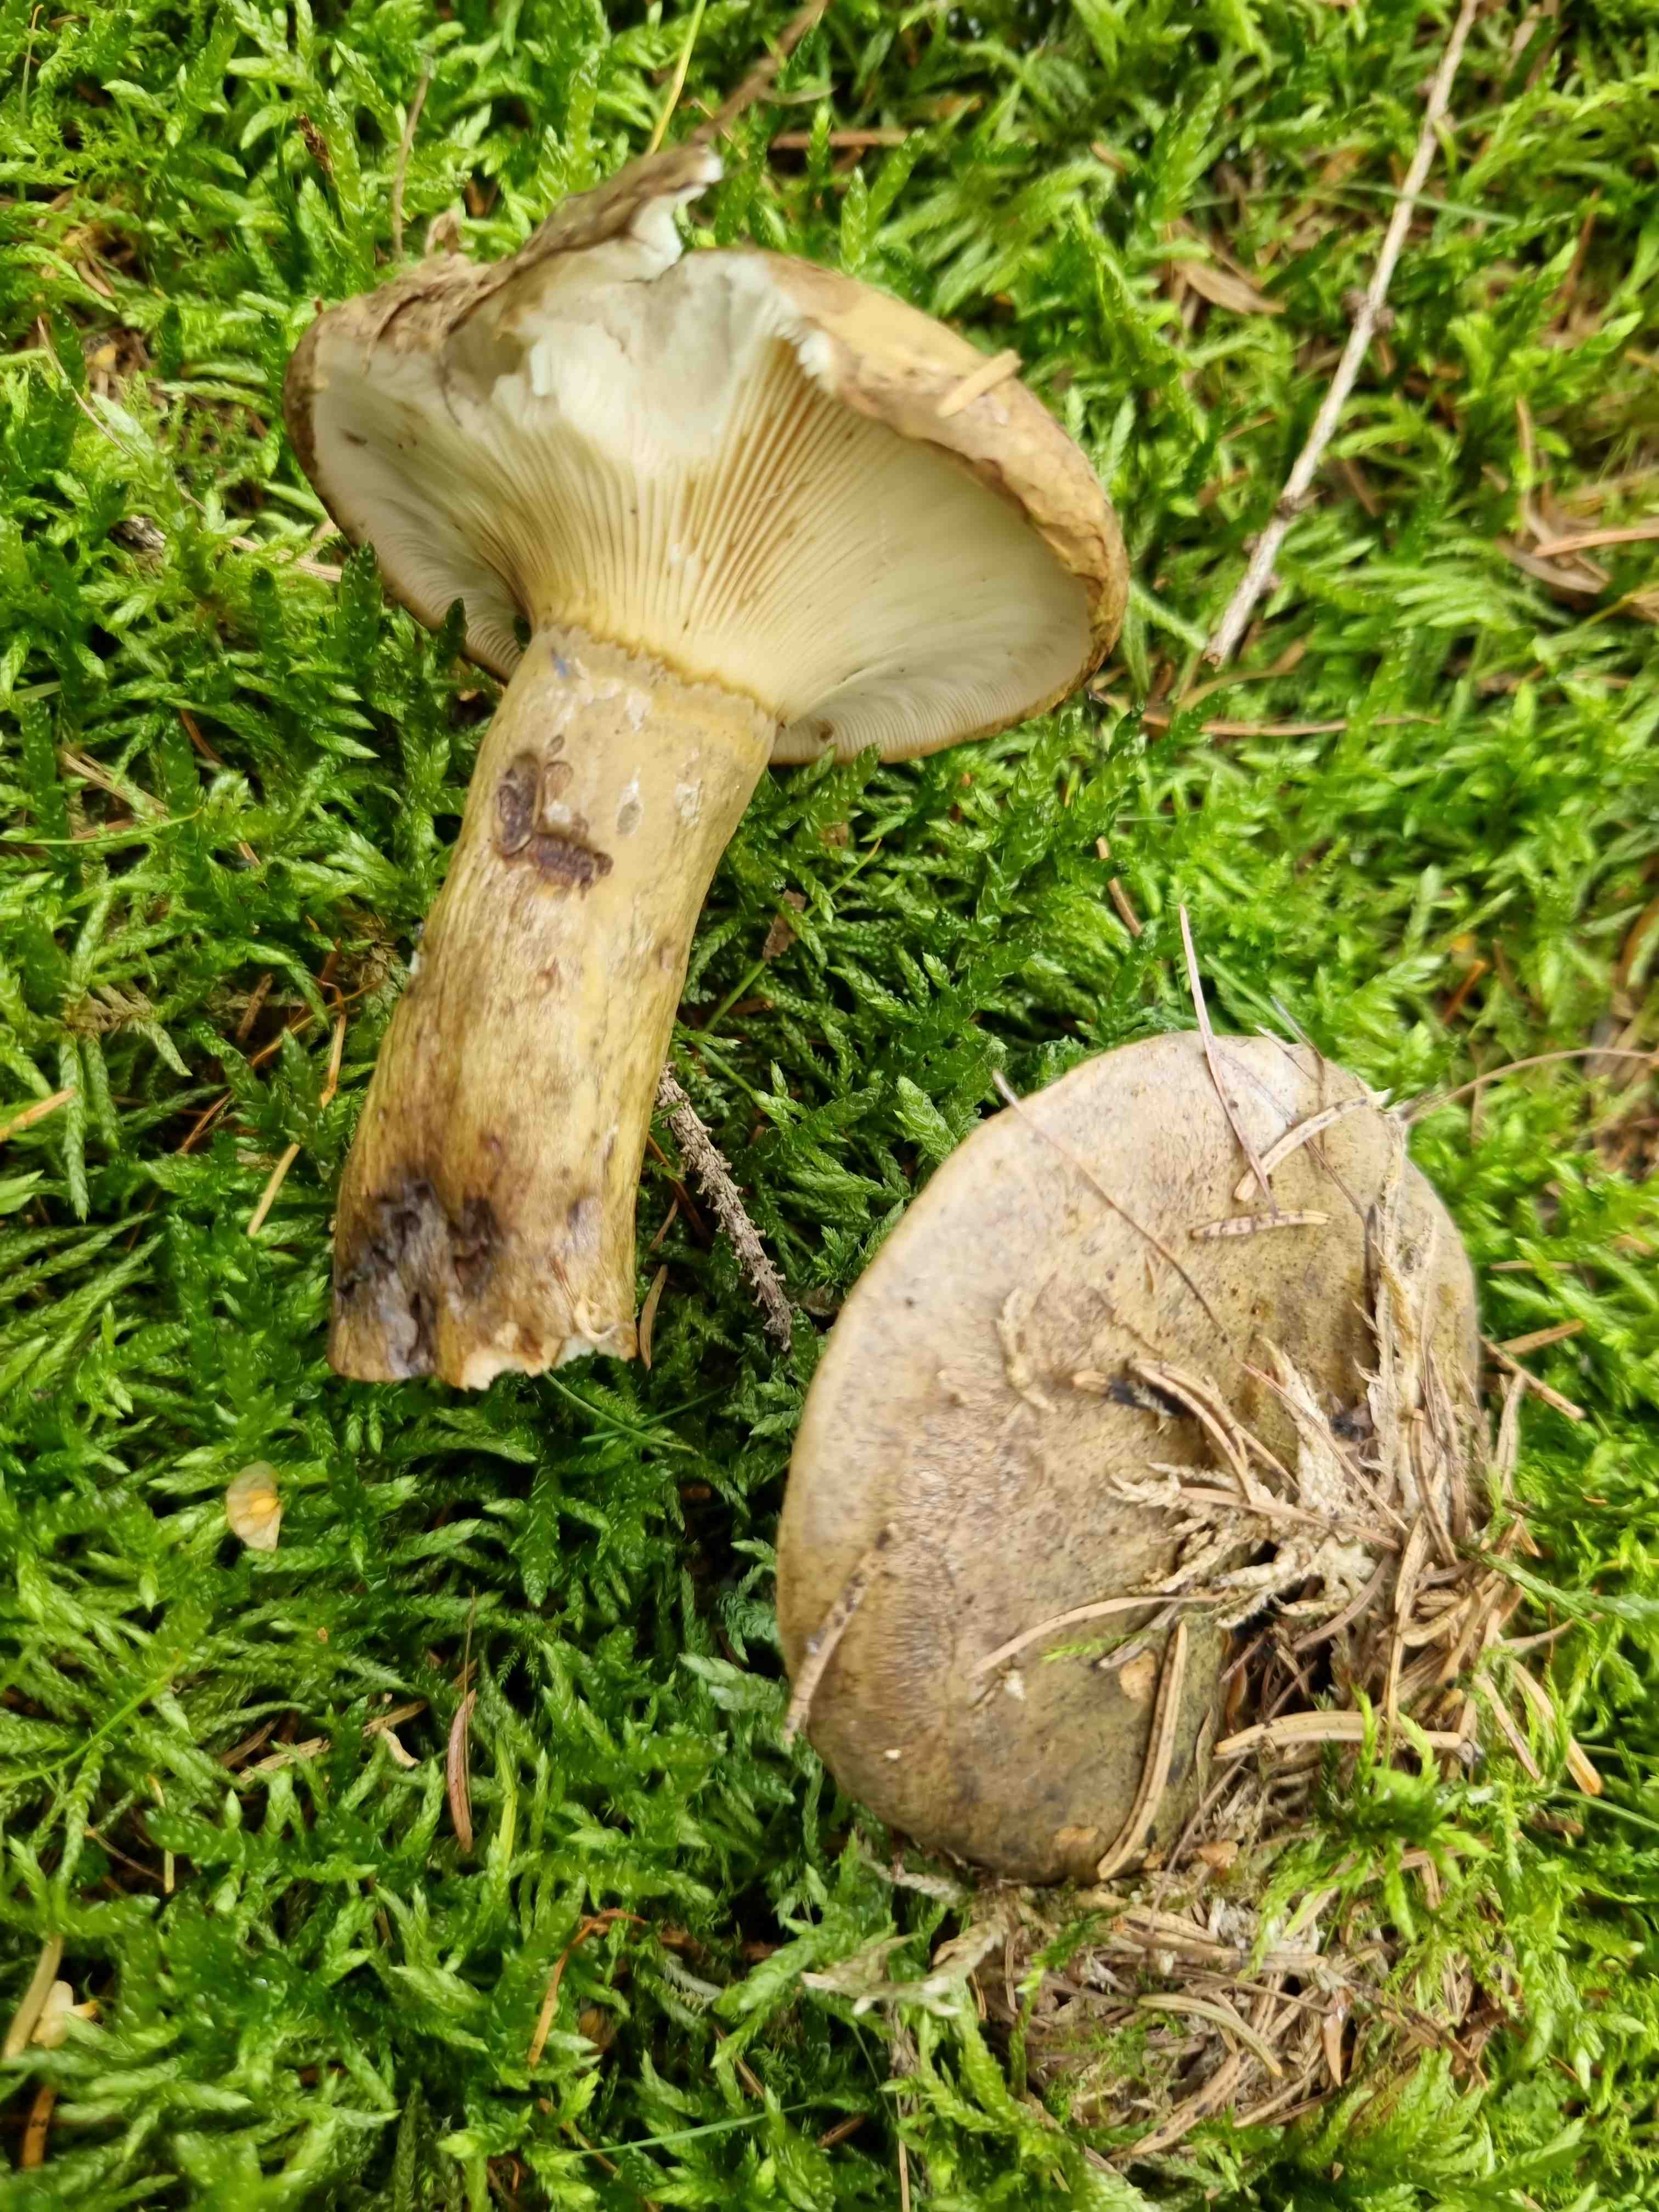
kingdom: Fungi
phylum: Basidiomycota
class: Agaricomycetes
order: Russulales
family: Russulaceae
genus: Lactarius
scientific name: Lactarius necator
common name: manddraber-mælkehat
